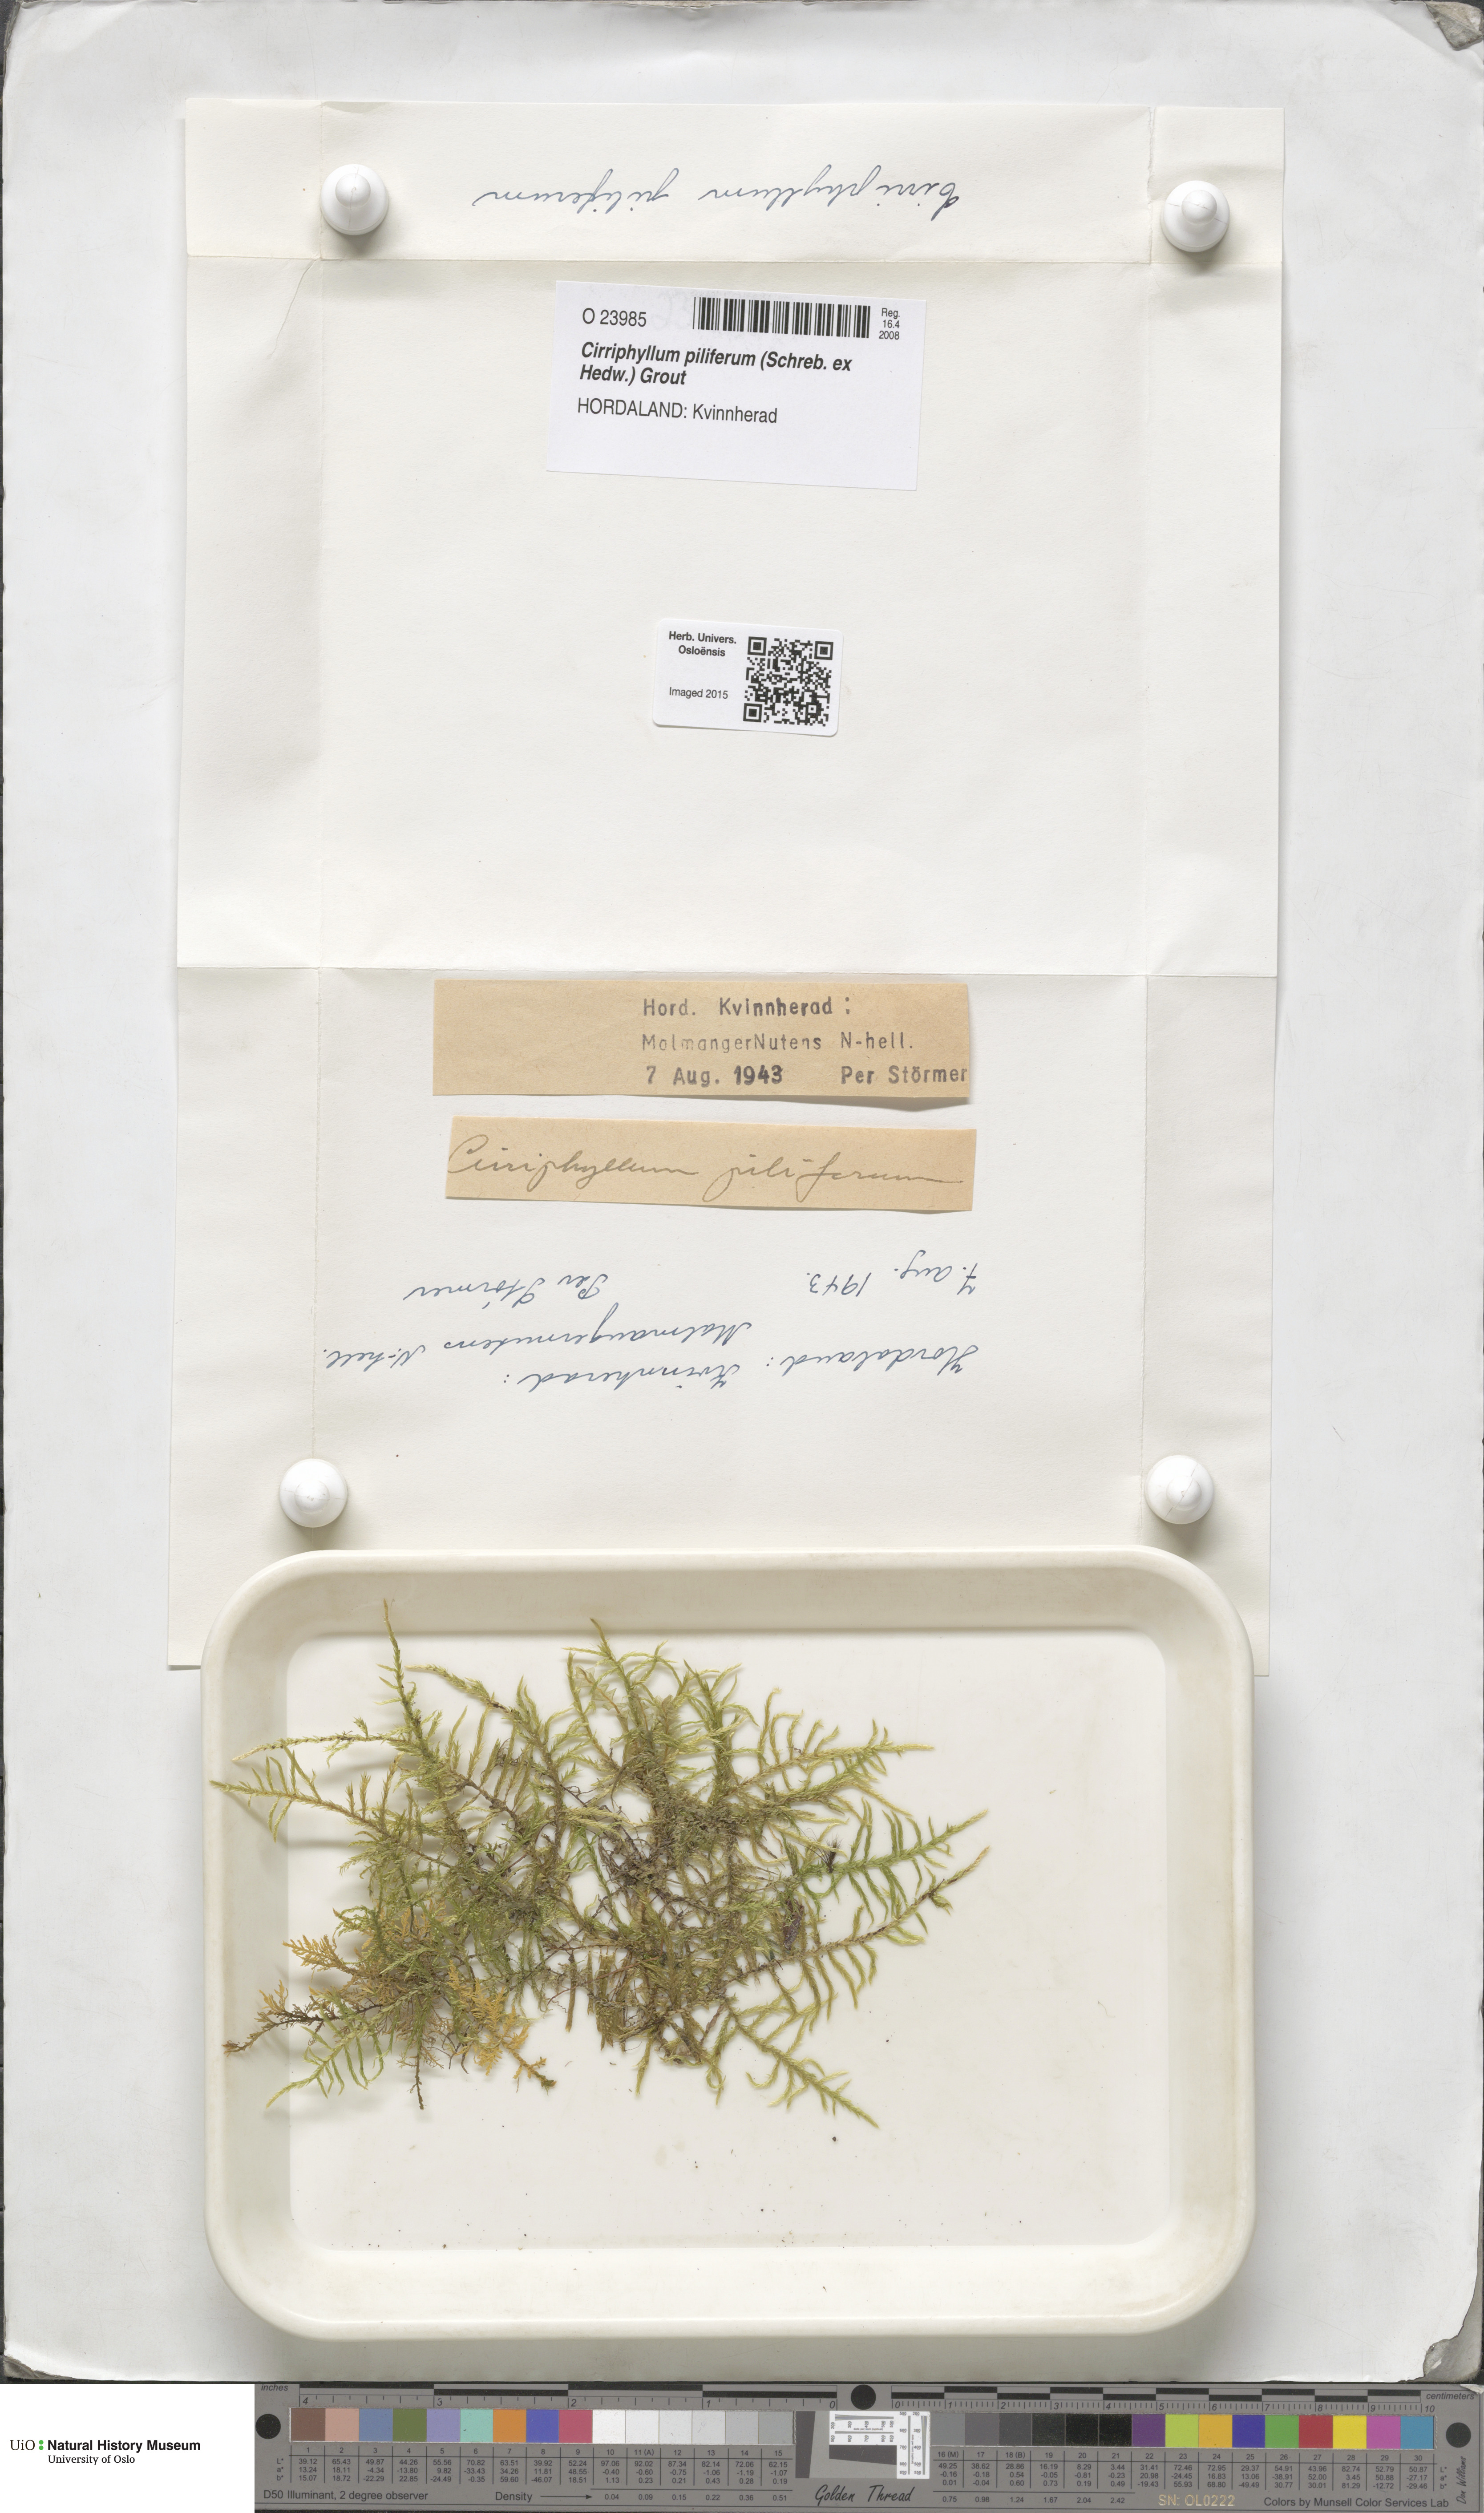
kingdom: Plantae
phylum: Bryophyta
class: Bryopsida
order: Hypnales
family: Brachytheciaceae
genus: Cirriphyllum
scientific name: Cirriphyllum piliferum
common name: Hair-pointed moss
